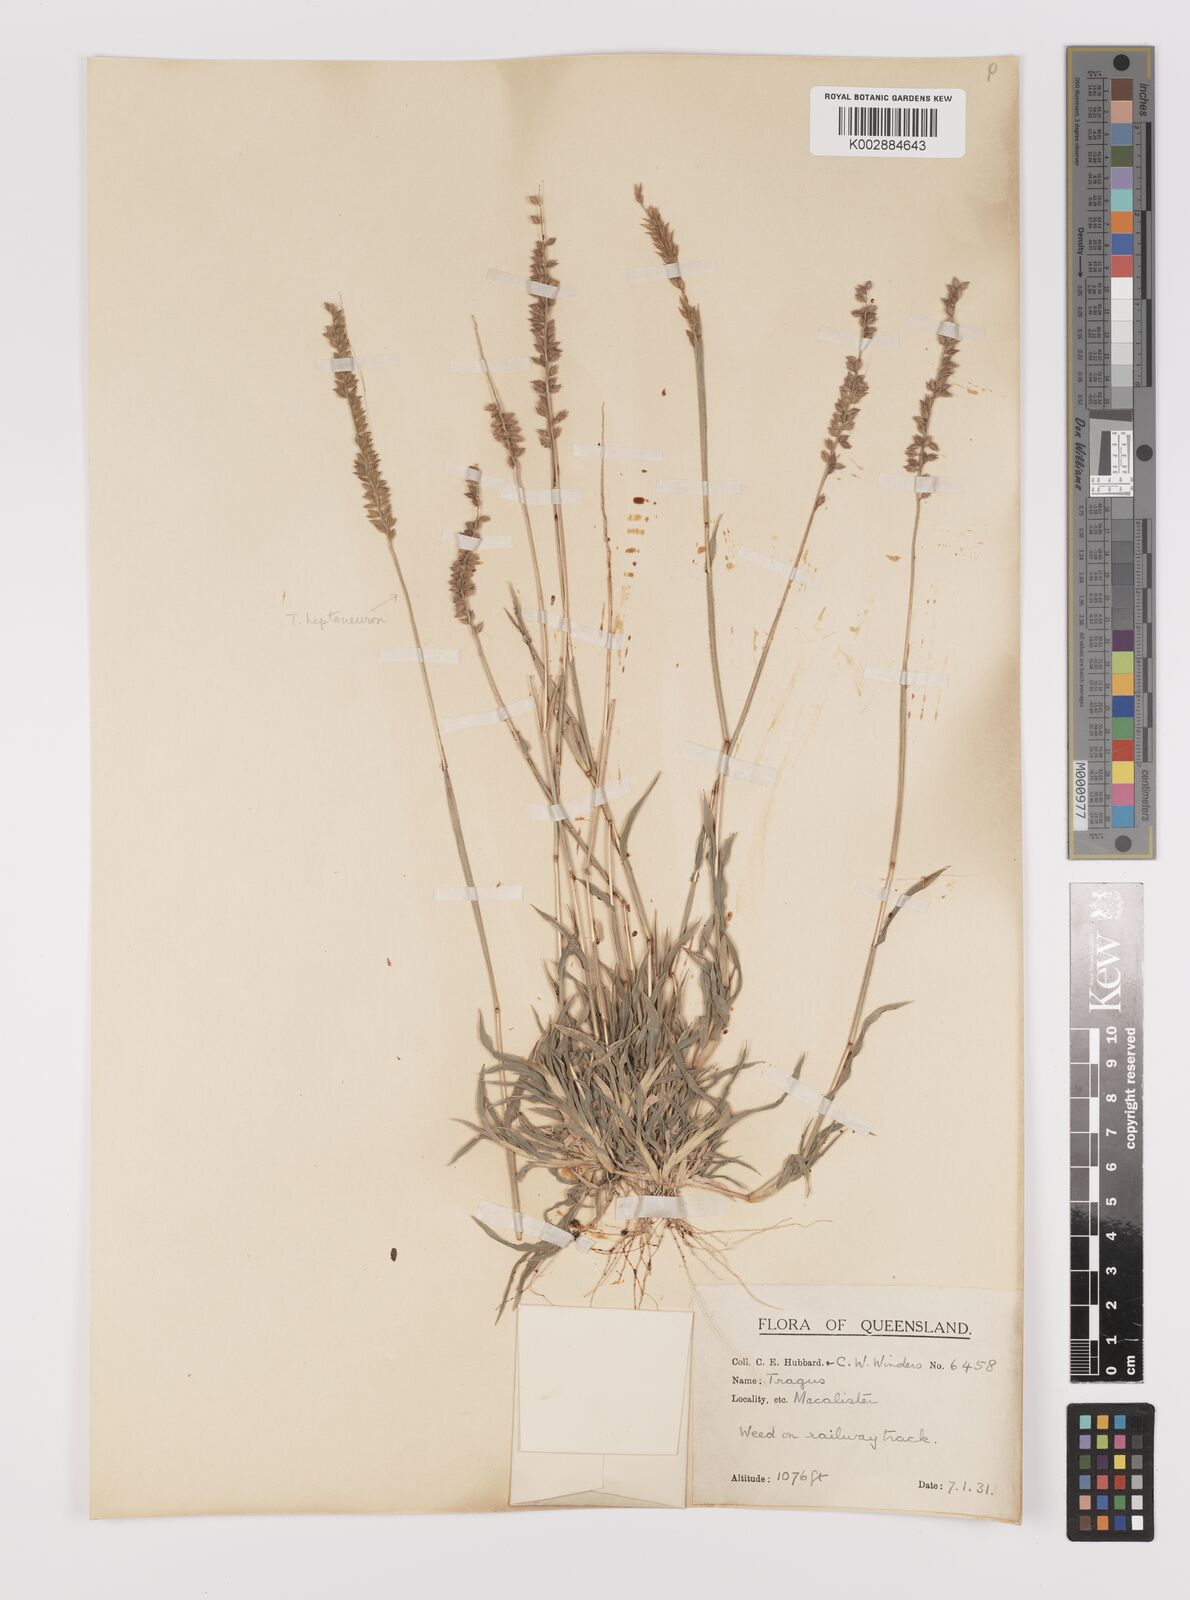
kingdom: Plantae
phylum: Tracheophyta
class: Liliopsida
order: Poales
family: Poaceae
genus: Tragus
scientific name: Tragus australianus
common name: Australian bur-grass
